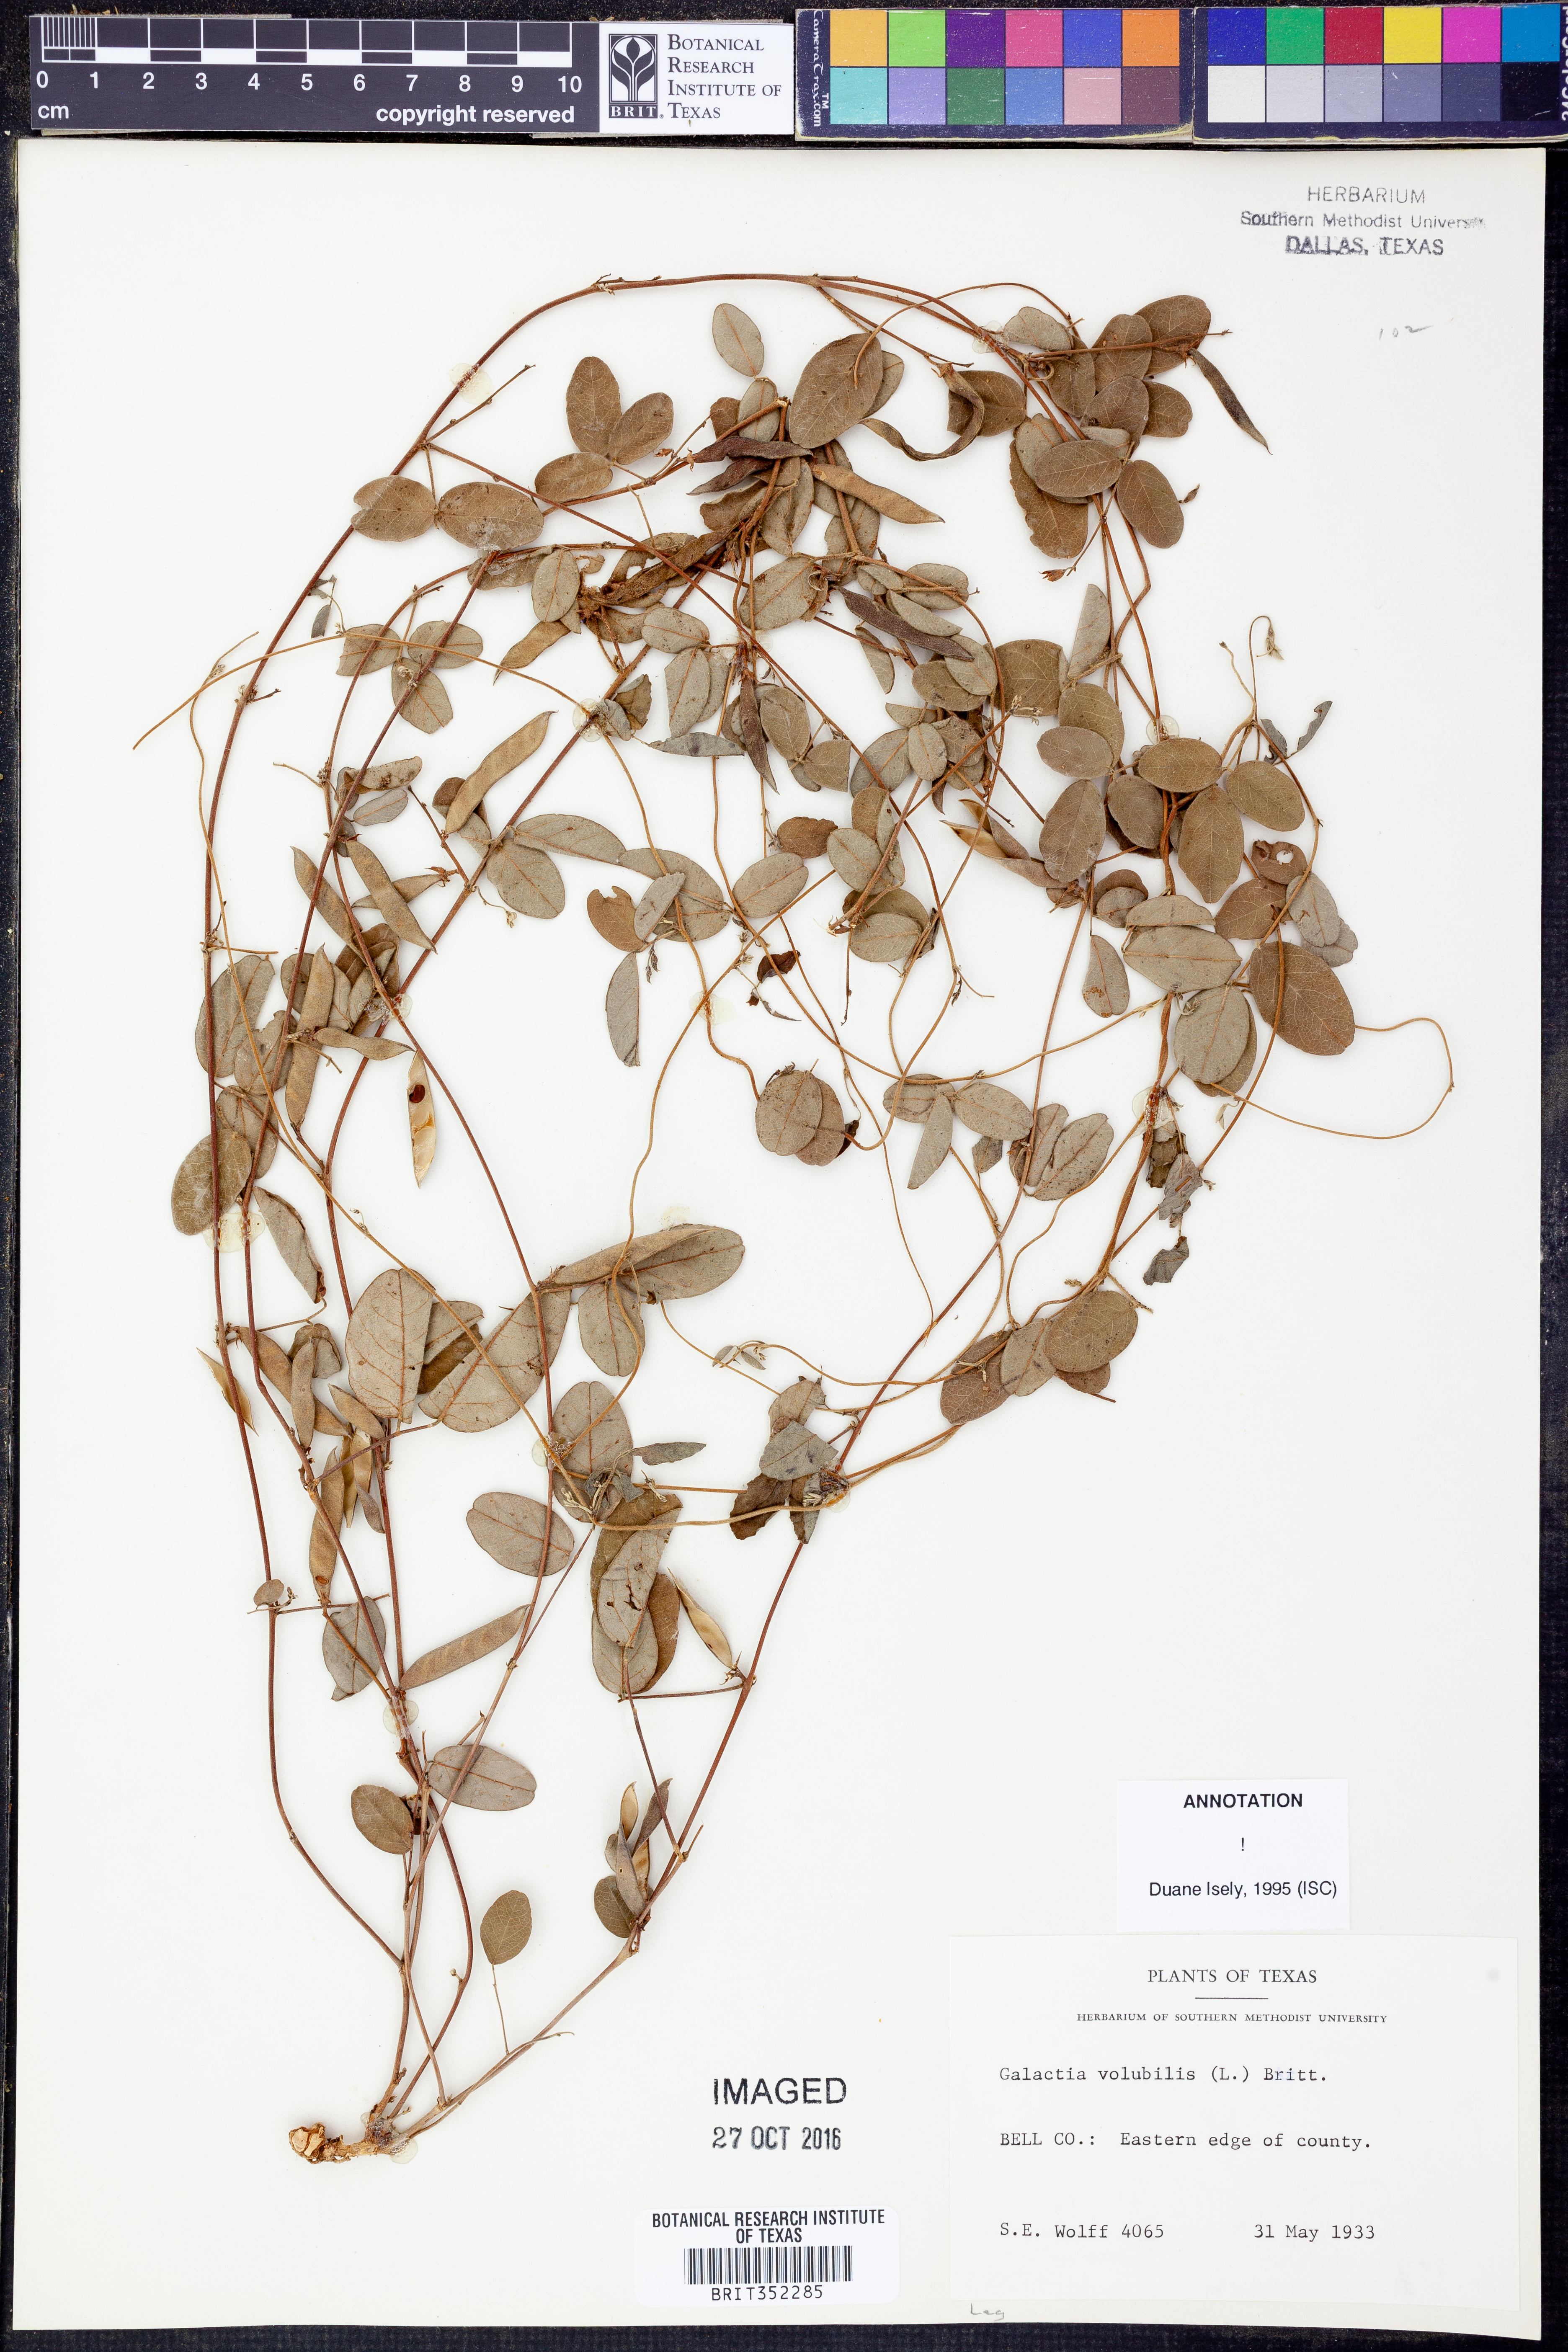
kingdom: Plantae
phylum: Tracheophyta
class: Magnoliopsida
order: Fabales
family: Fabaceae
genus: Galactia
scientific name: Galactia volubilis
